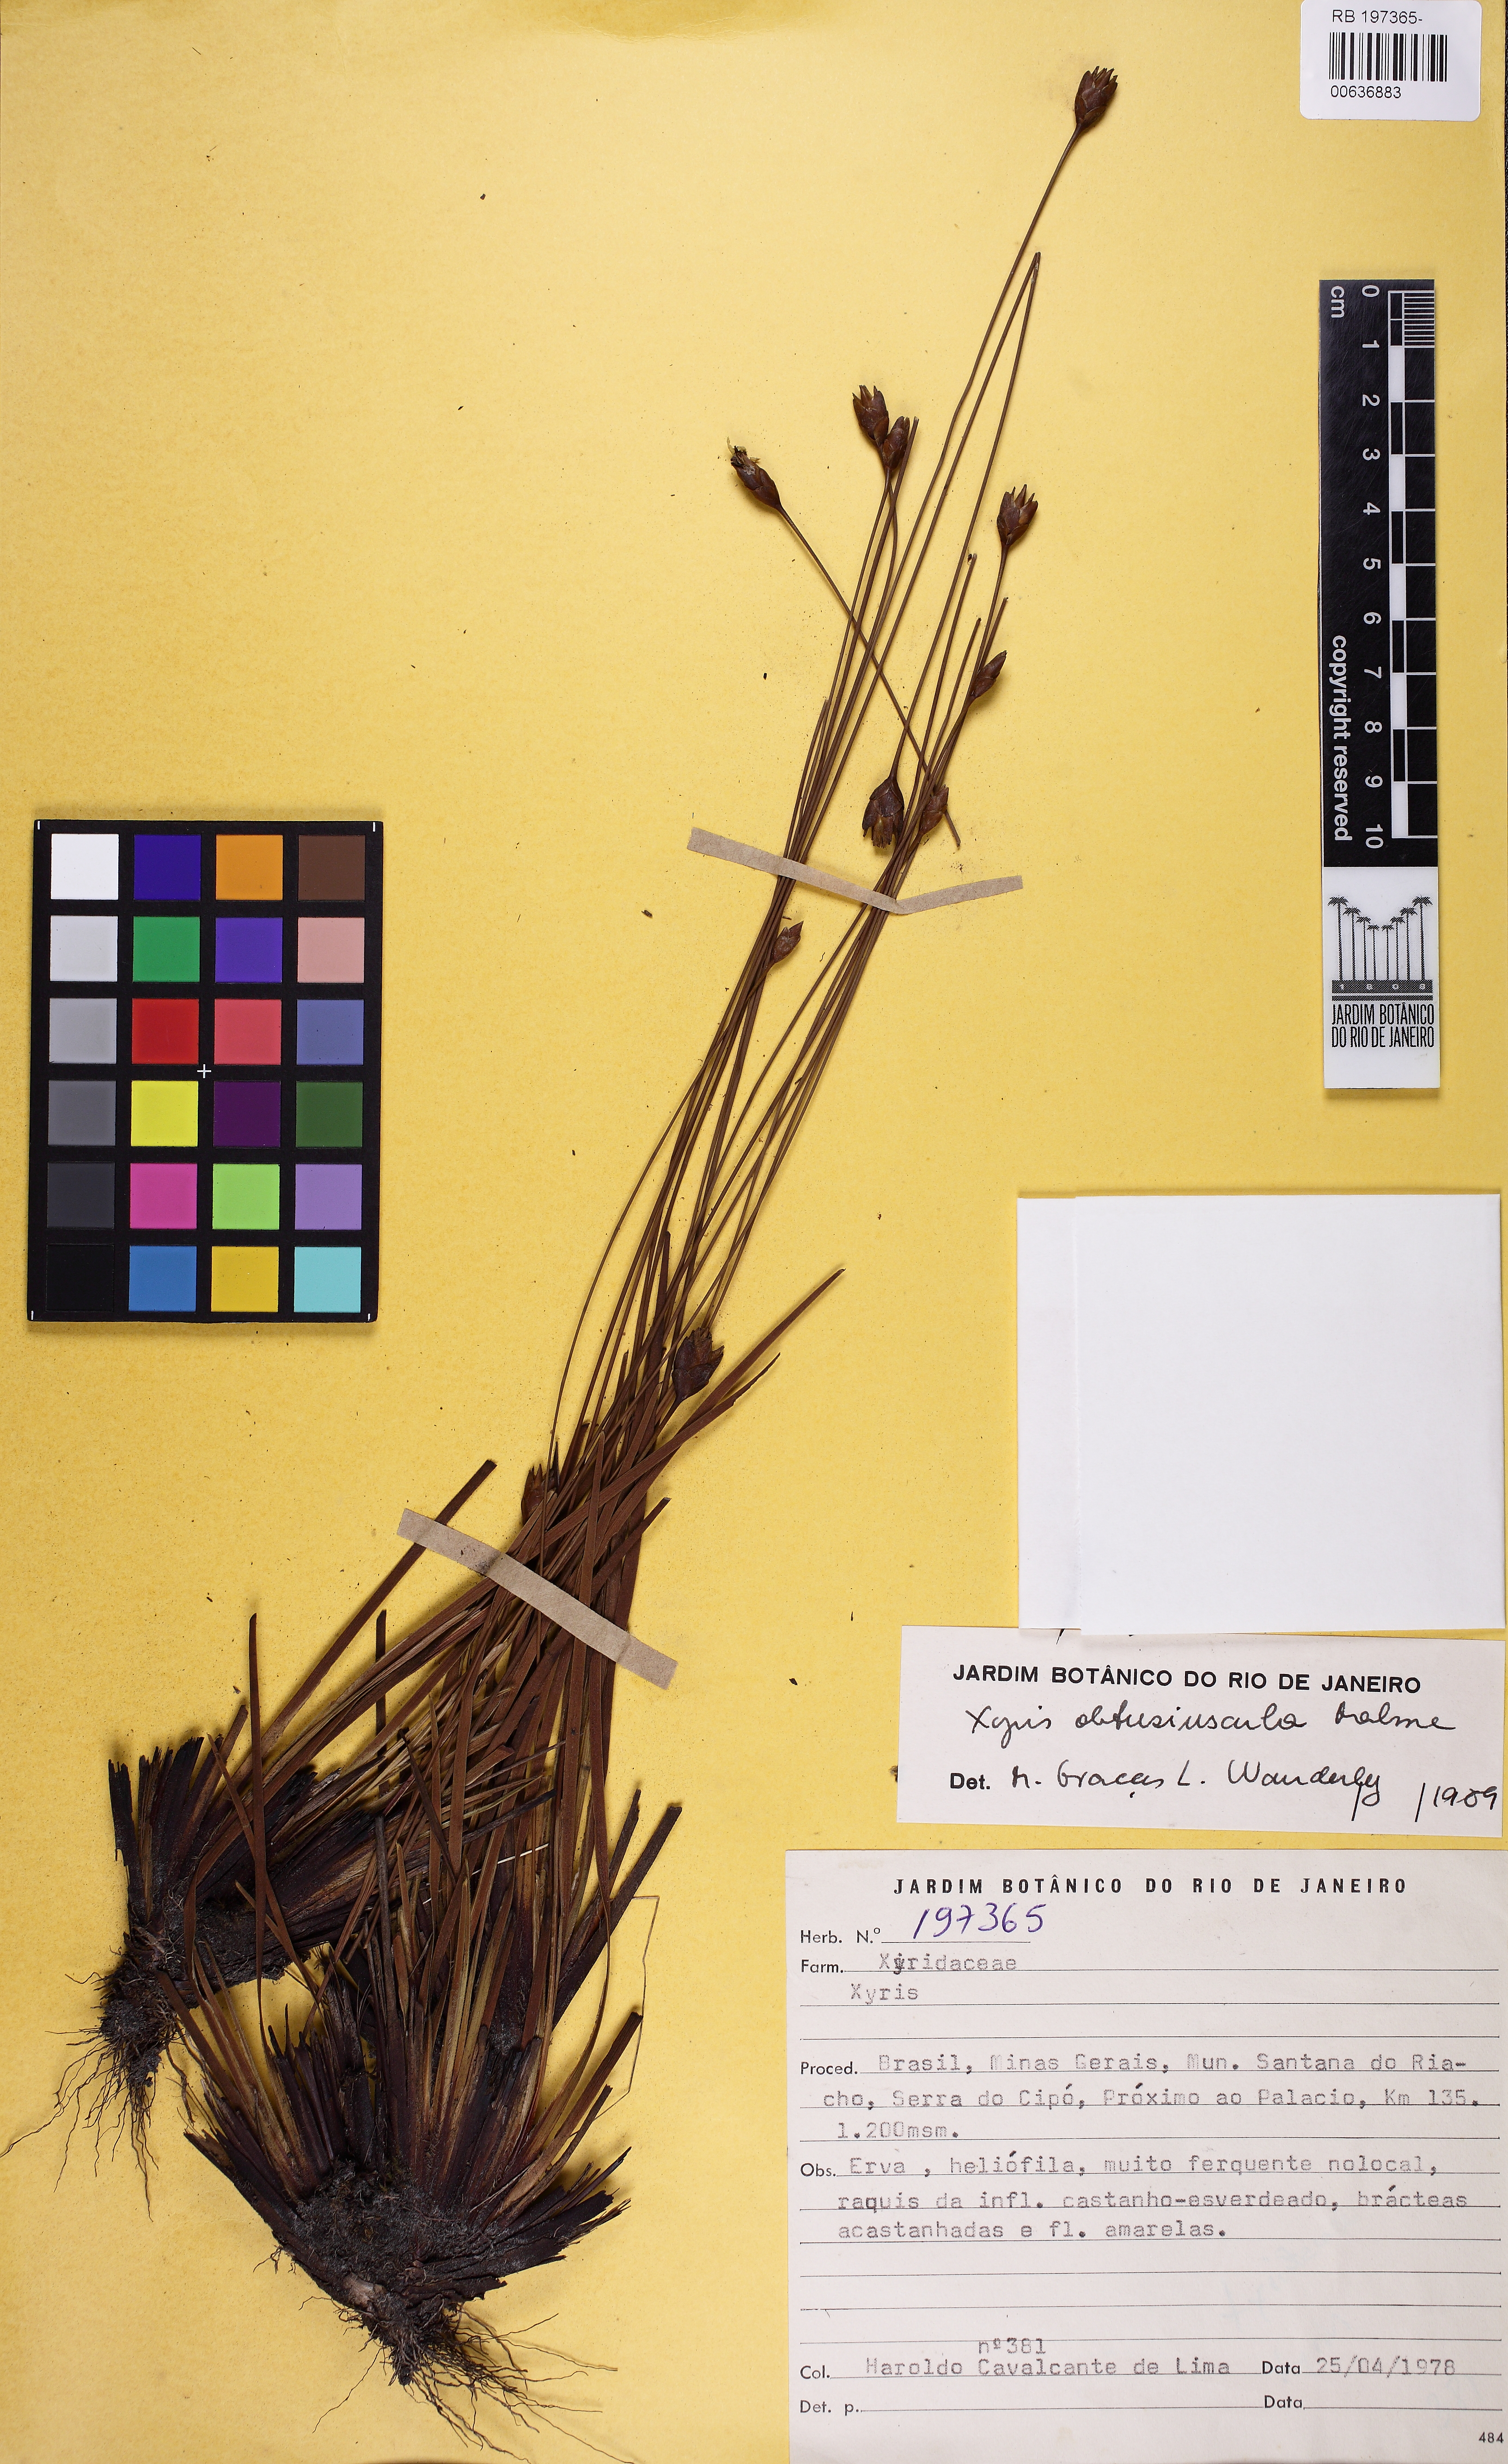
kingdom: Plantae
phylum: Tracheophyta
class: Liliopsida
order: Poales
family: Xyridaceae
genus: Xyris
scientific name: Xyris obtusiuscula
